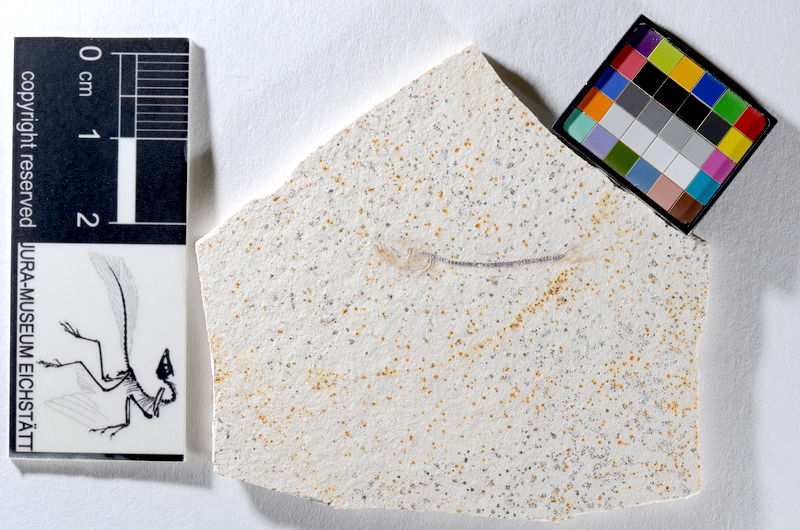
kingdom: Animalia
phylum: Chordata
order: Salmoniformes
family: Orthogonikleithridae
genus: Orthogonikleithrus
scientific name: Orthogonikleithrus hoelli
